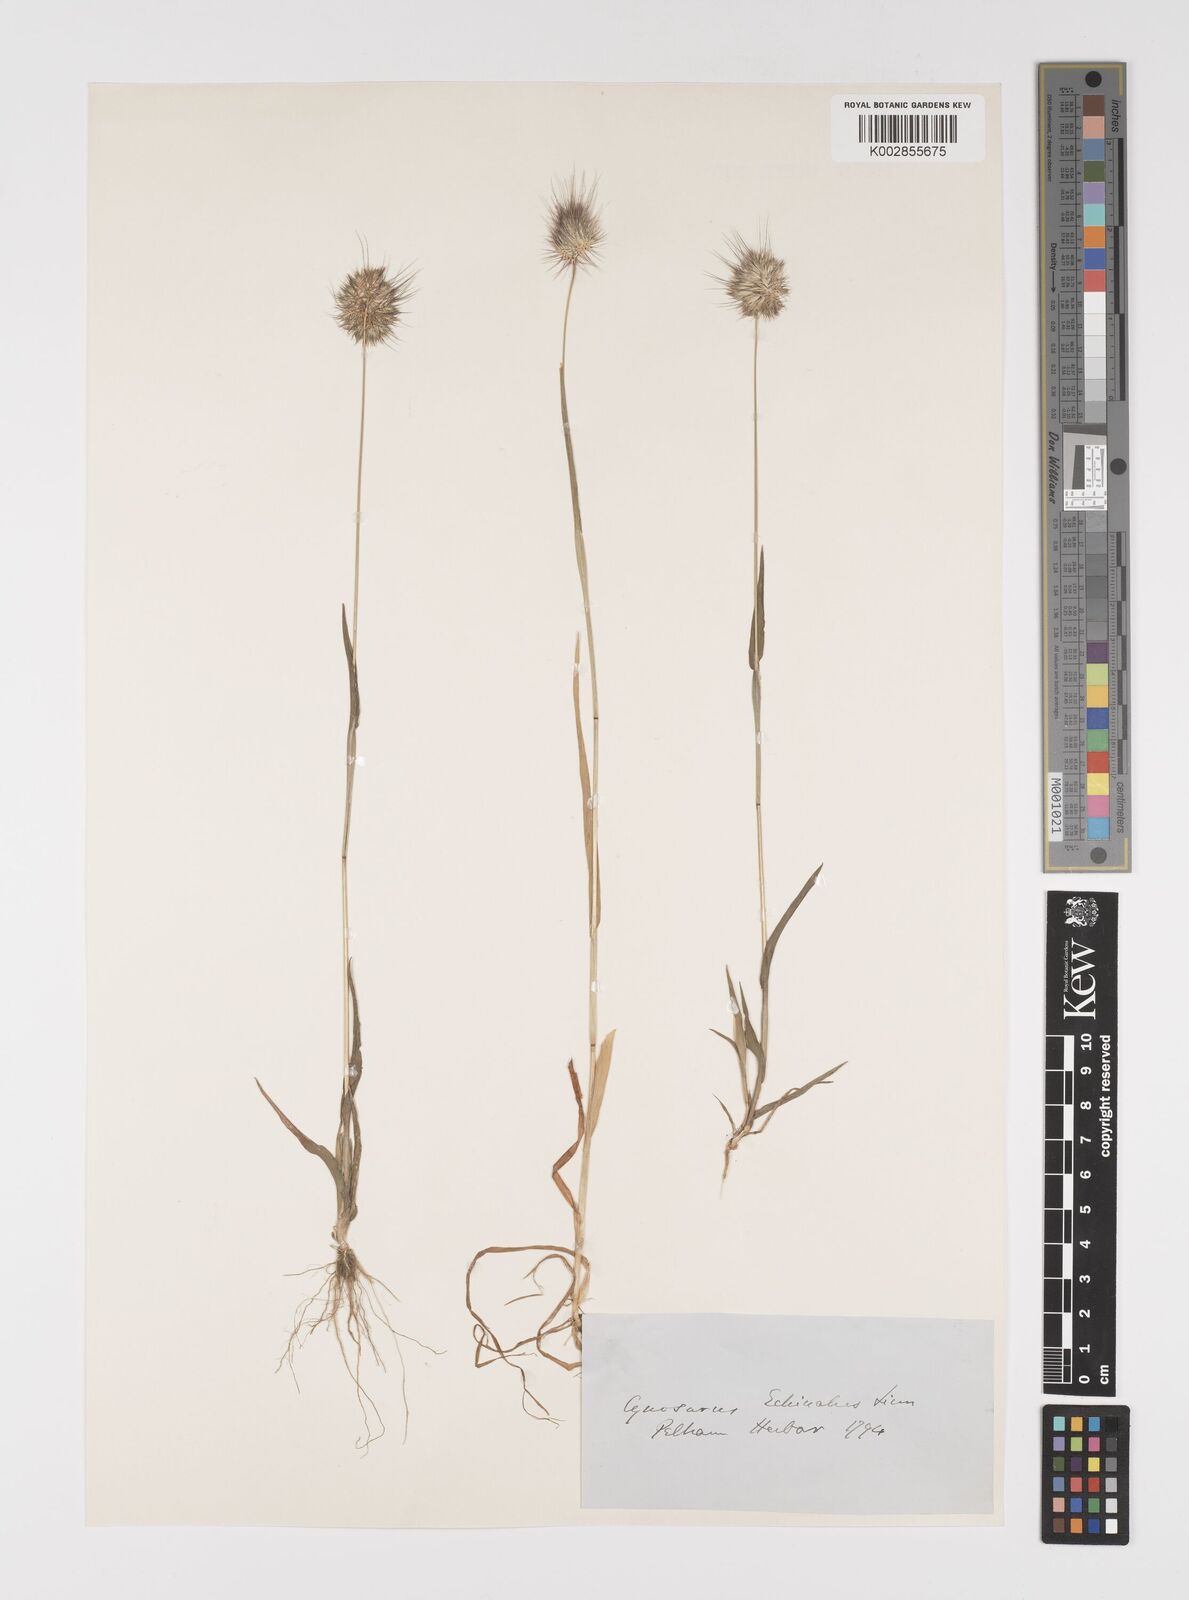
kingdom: Plantae
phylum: Tracheophyta
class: Liliopsida
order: Poales
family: Poaceae
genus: Cynosurus
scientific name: Cynosurus echinatus
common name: Rough dog's-tail
